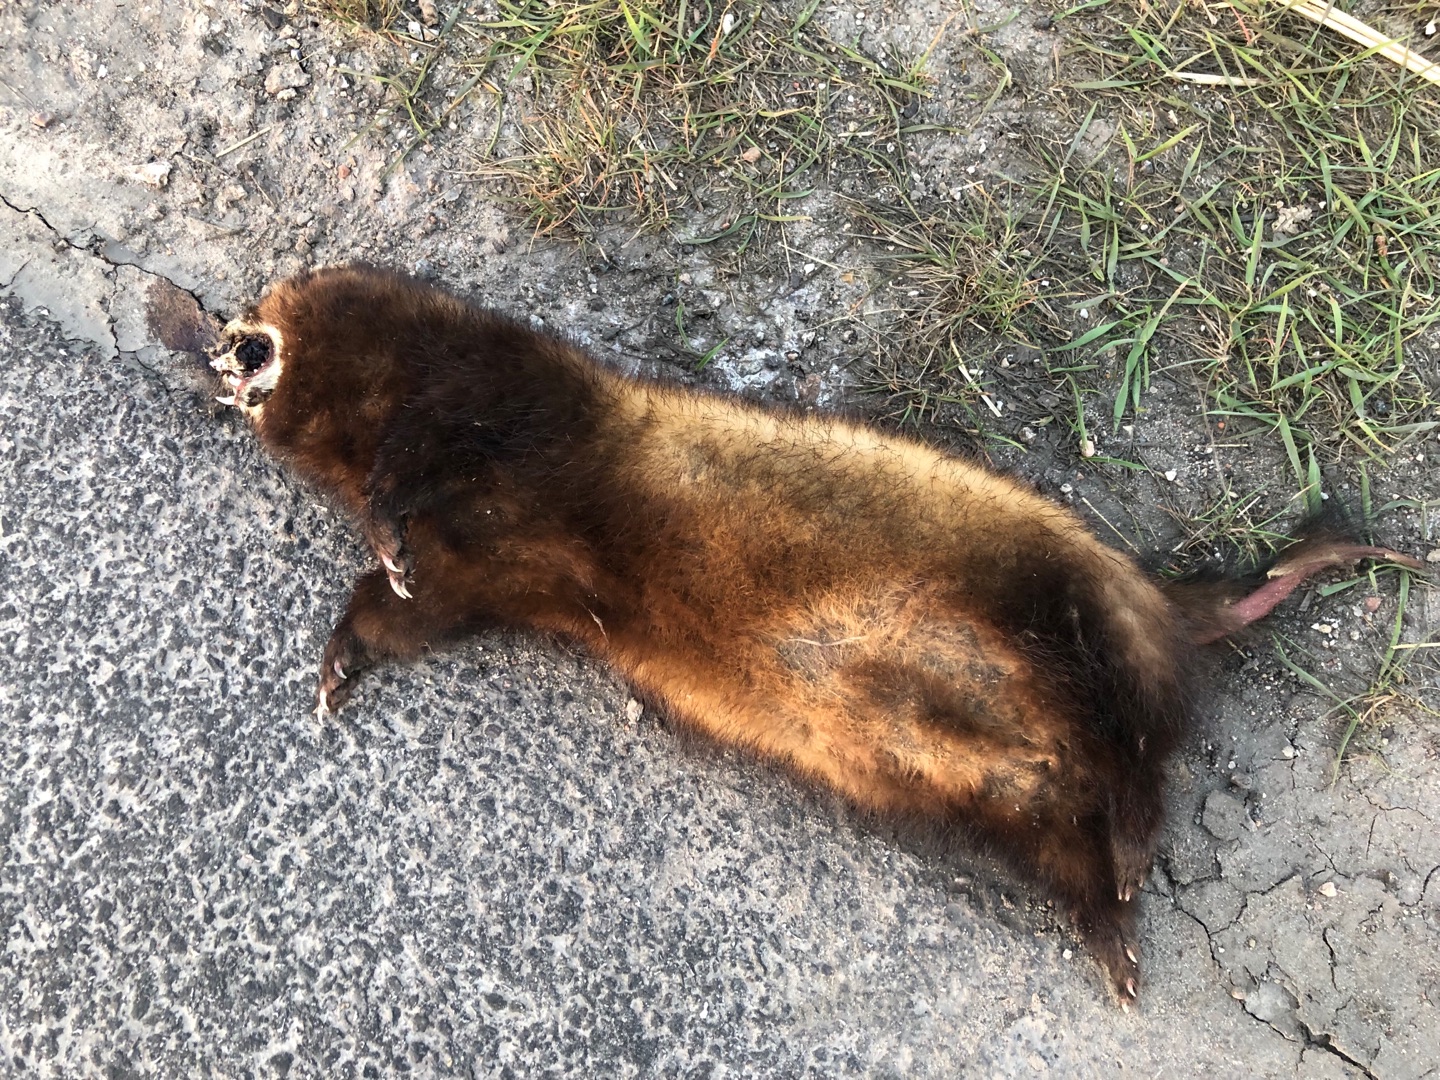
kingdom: Animalia
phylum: Chordata
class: Mammalia
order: Carnivora
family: Mustelidae
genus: Mustela
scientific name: Mustela putorius
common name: Ilder
